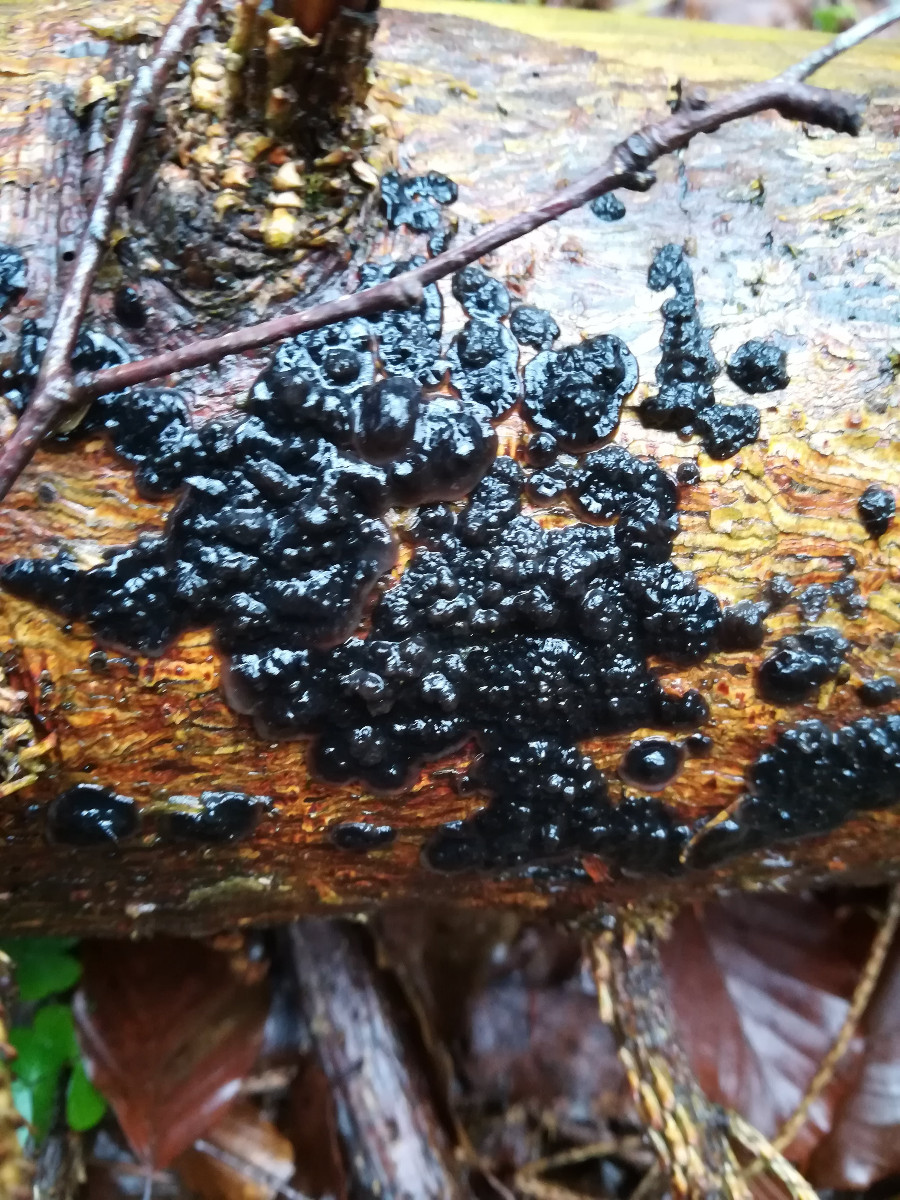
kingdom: Fungi
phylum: Basidiomycota
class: Agaricomycetes
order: Auriculariales
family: Auriculariaceae
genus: Exidia
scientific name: Exidia pithya
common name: gran-bævretop
